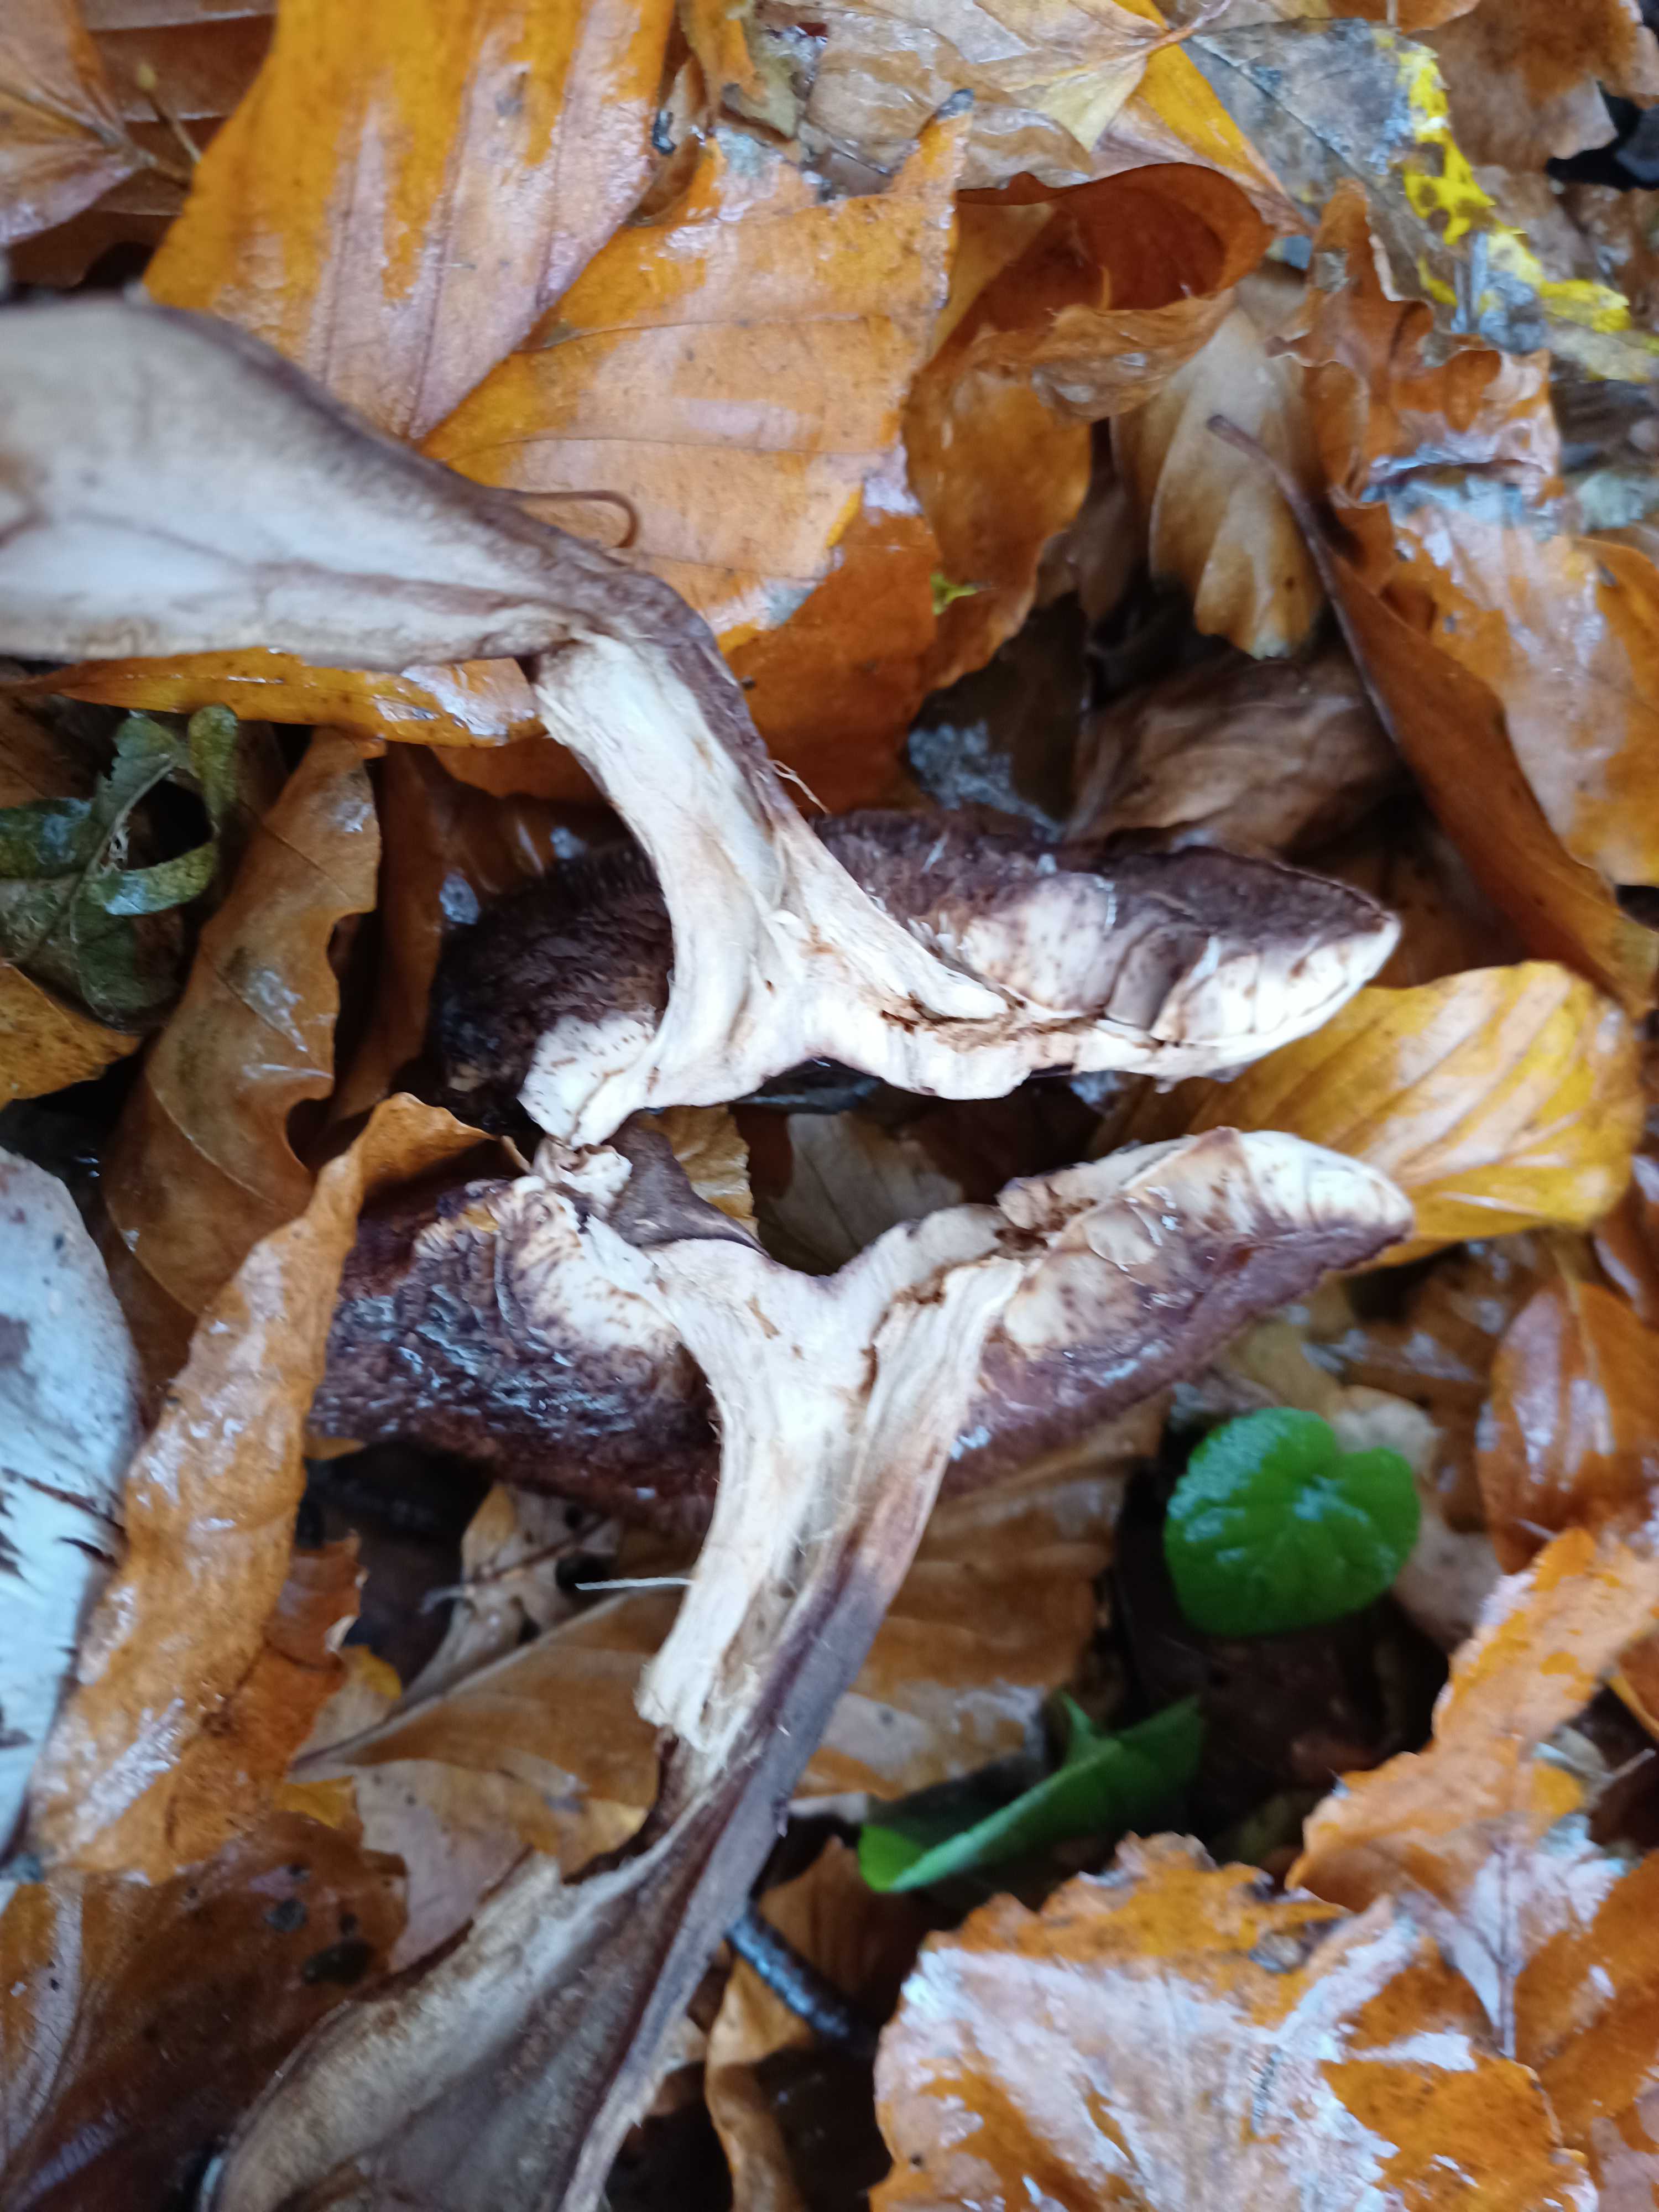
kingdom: Fungi
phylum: Basidiomycota
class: Agaricomycetes
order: Agaricales
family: Tricholomataceae
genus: Tricholoma
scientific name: Tricholoma
